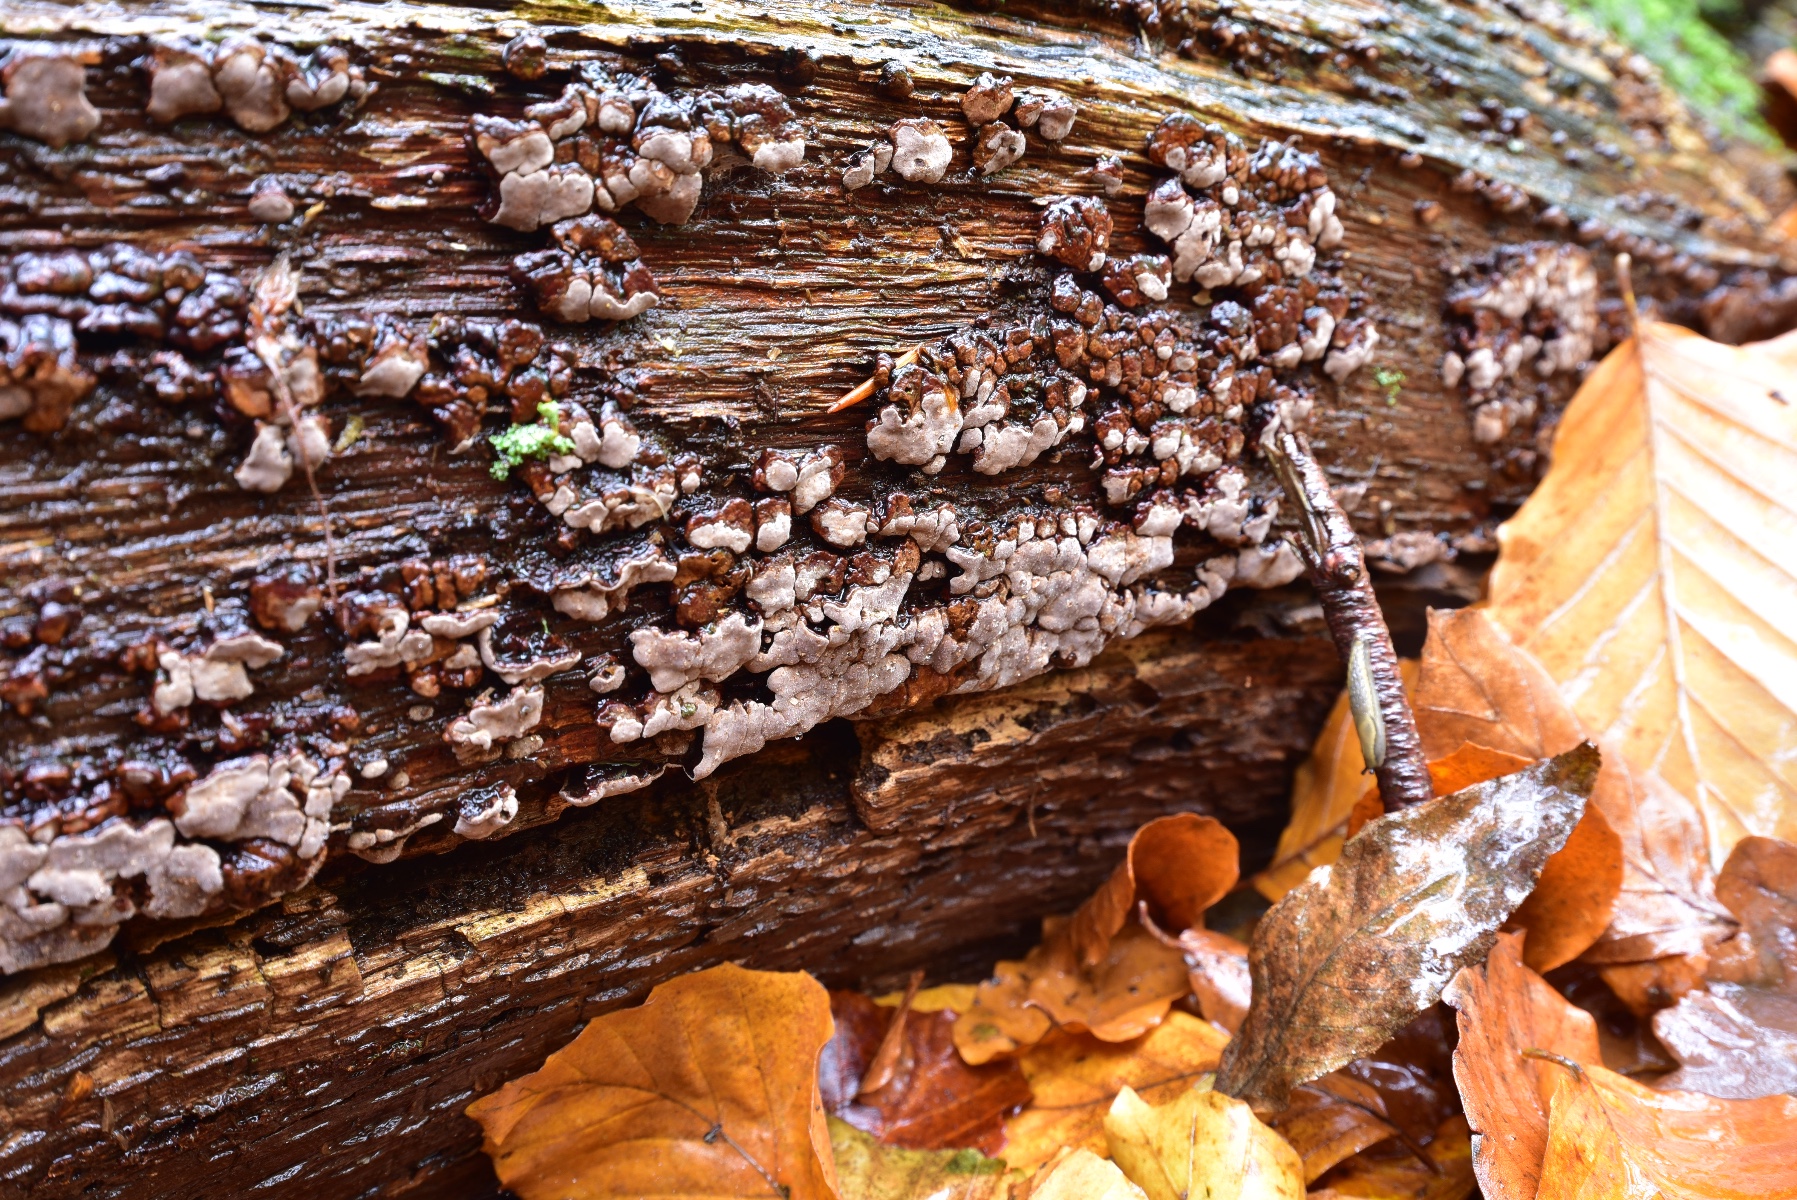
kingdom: Fungi
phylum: Basidiomycota
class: Agaricomycetes
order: Russulales
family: Stereaceae
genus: Xylobolus
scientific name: Xylobolus frustulatus
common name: mønster-lædersvamp
